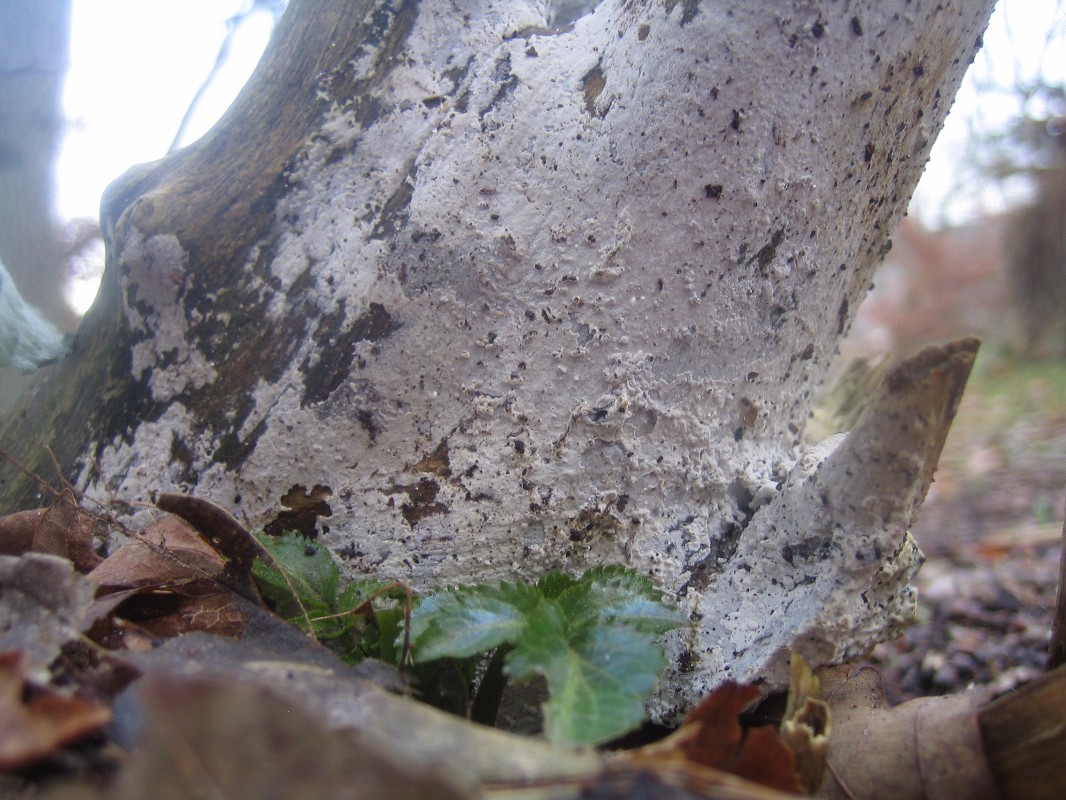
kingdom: Fungi
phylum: Basidiomycota
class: Agaricomycetes
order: Corticiales
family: Corticiaceae
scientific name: Corticiaceae
